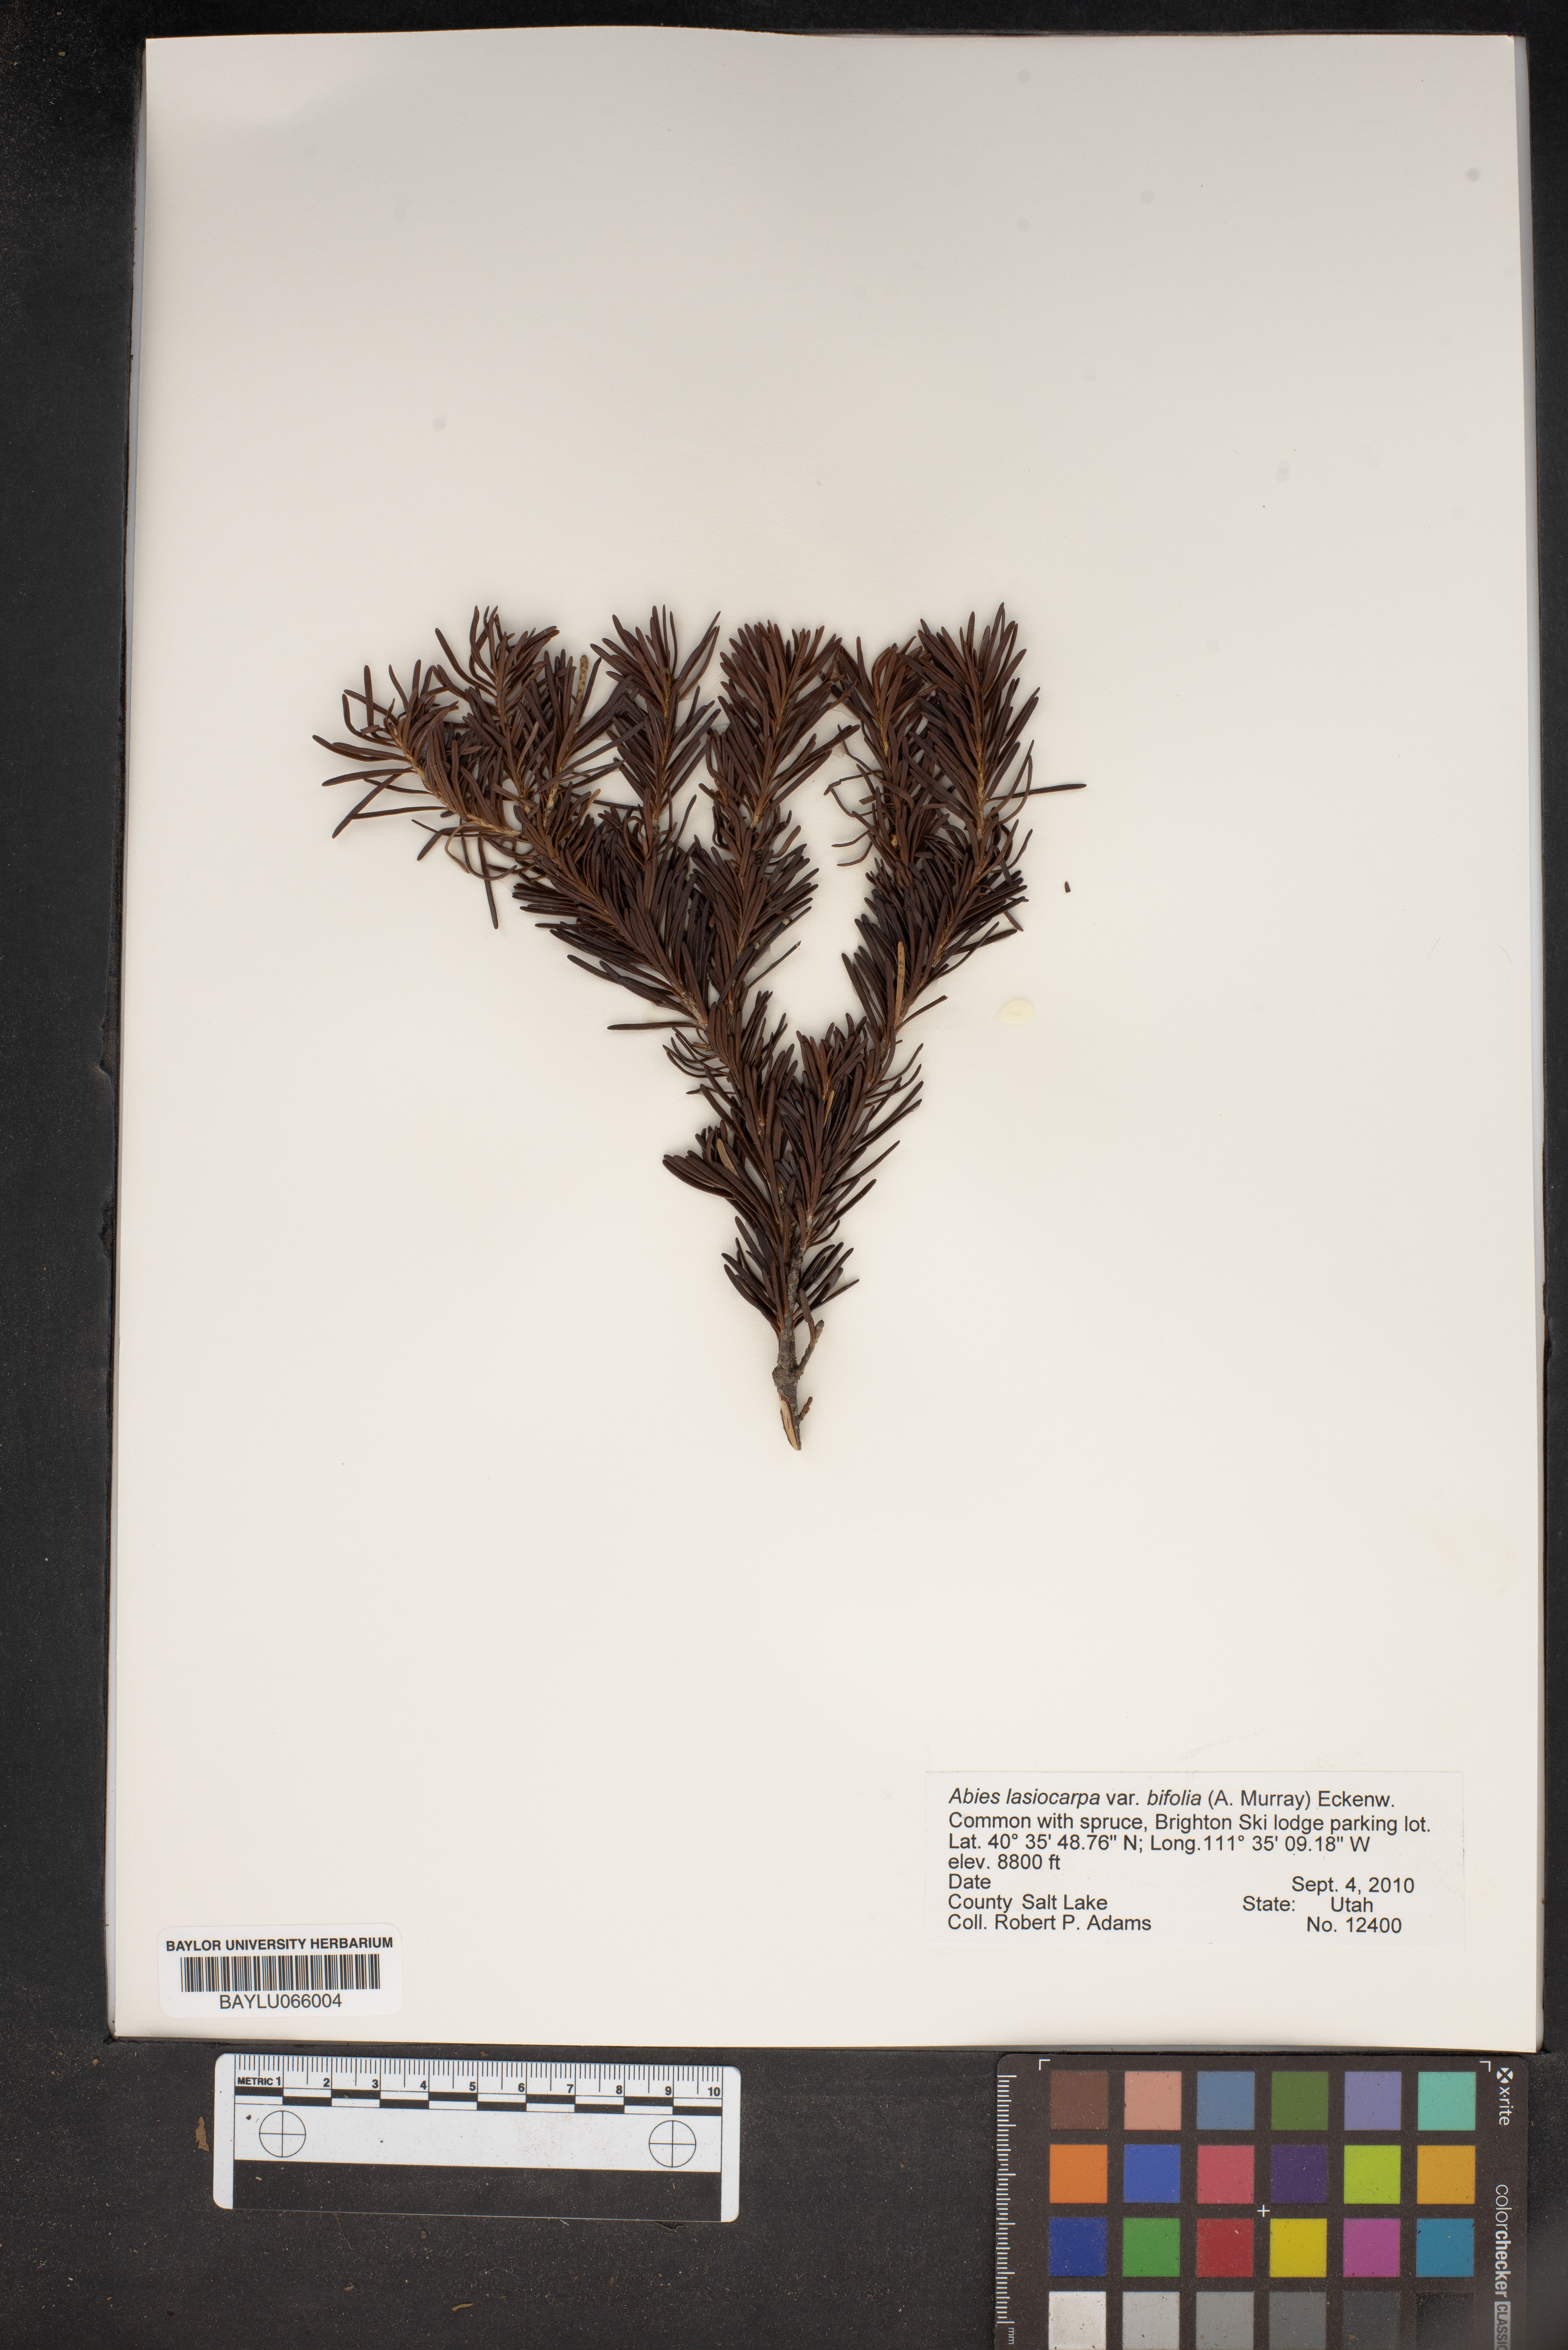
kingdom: Plantae
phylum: Tracheophyta
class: Pinopsida
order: Pinales
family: Pinaceae
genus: Abies
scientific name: Abies lasiocarpa
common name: Subalpine fir
